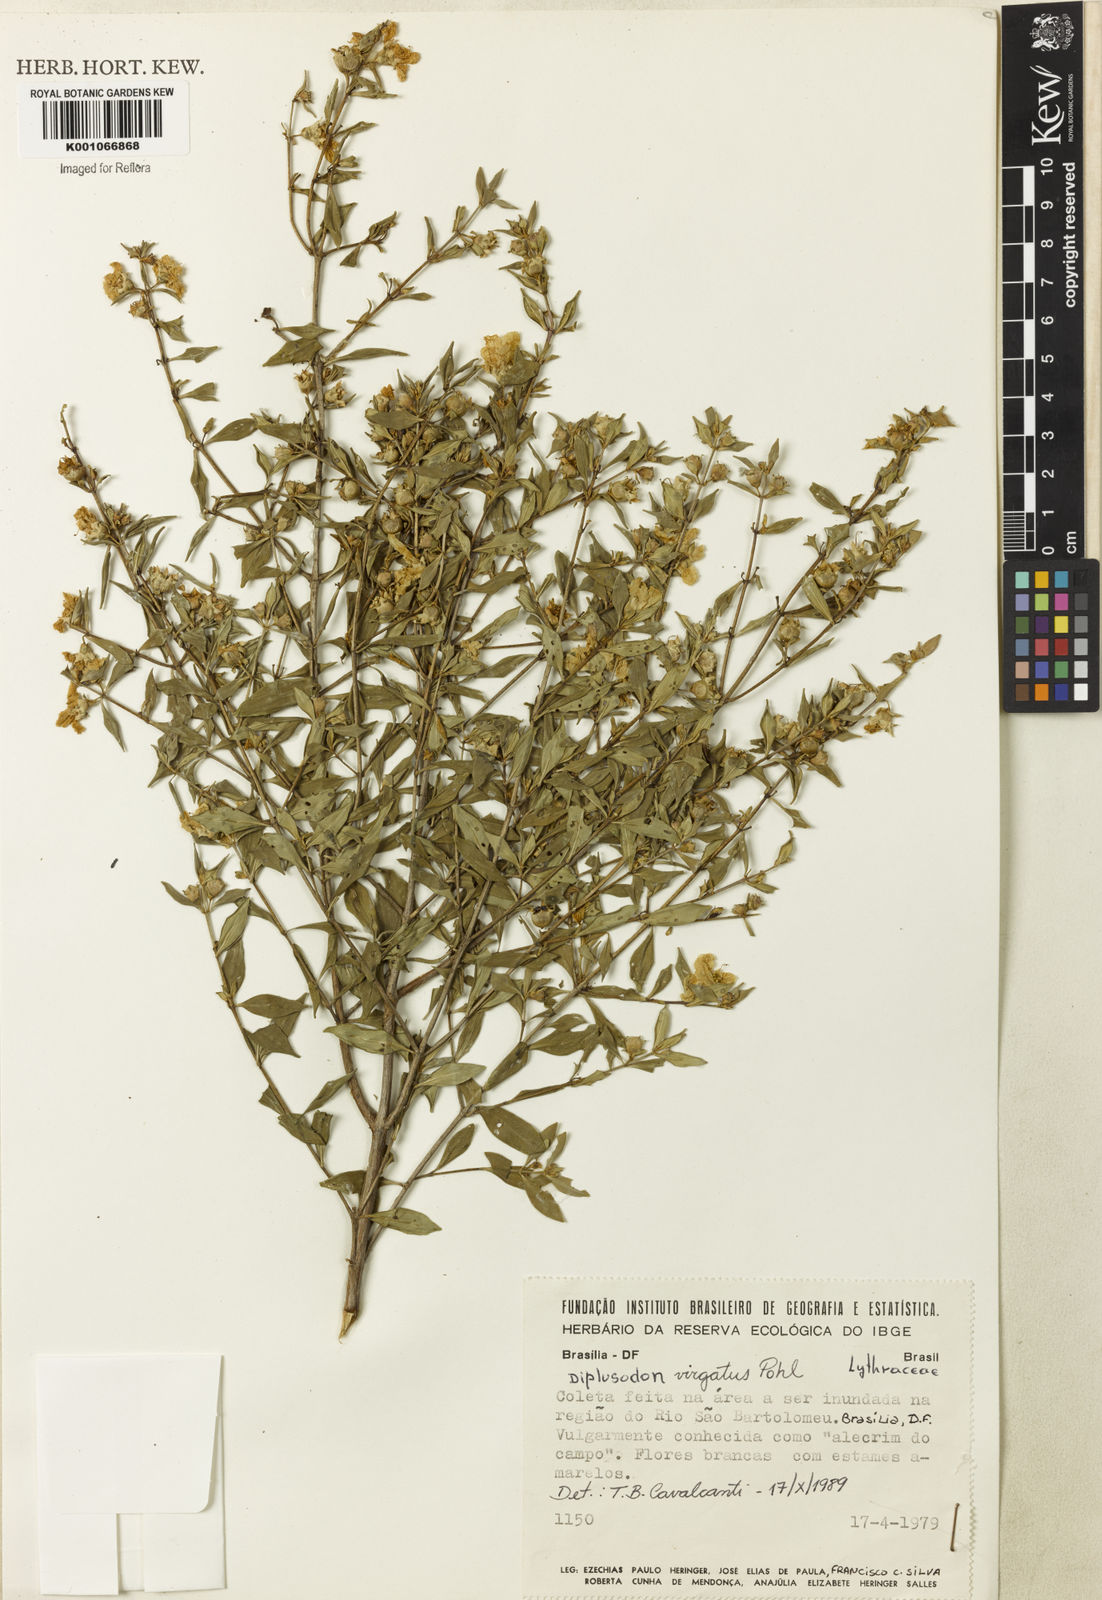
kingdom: Plantae
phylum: Tracheophyta
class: Magnoliopsida
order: Myrtales
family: Lythraceae
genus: Diplusodon
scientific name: Diplusodon virgatus
